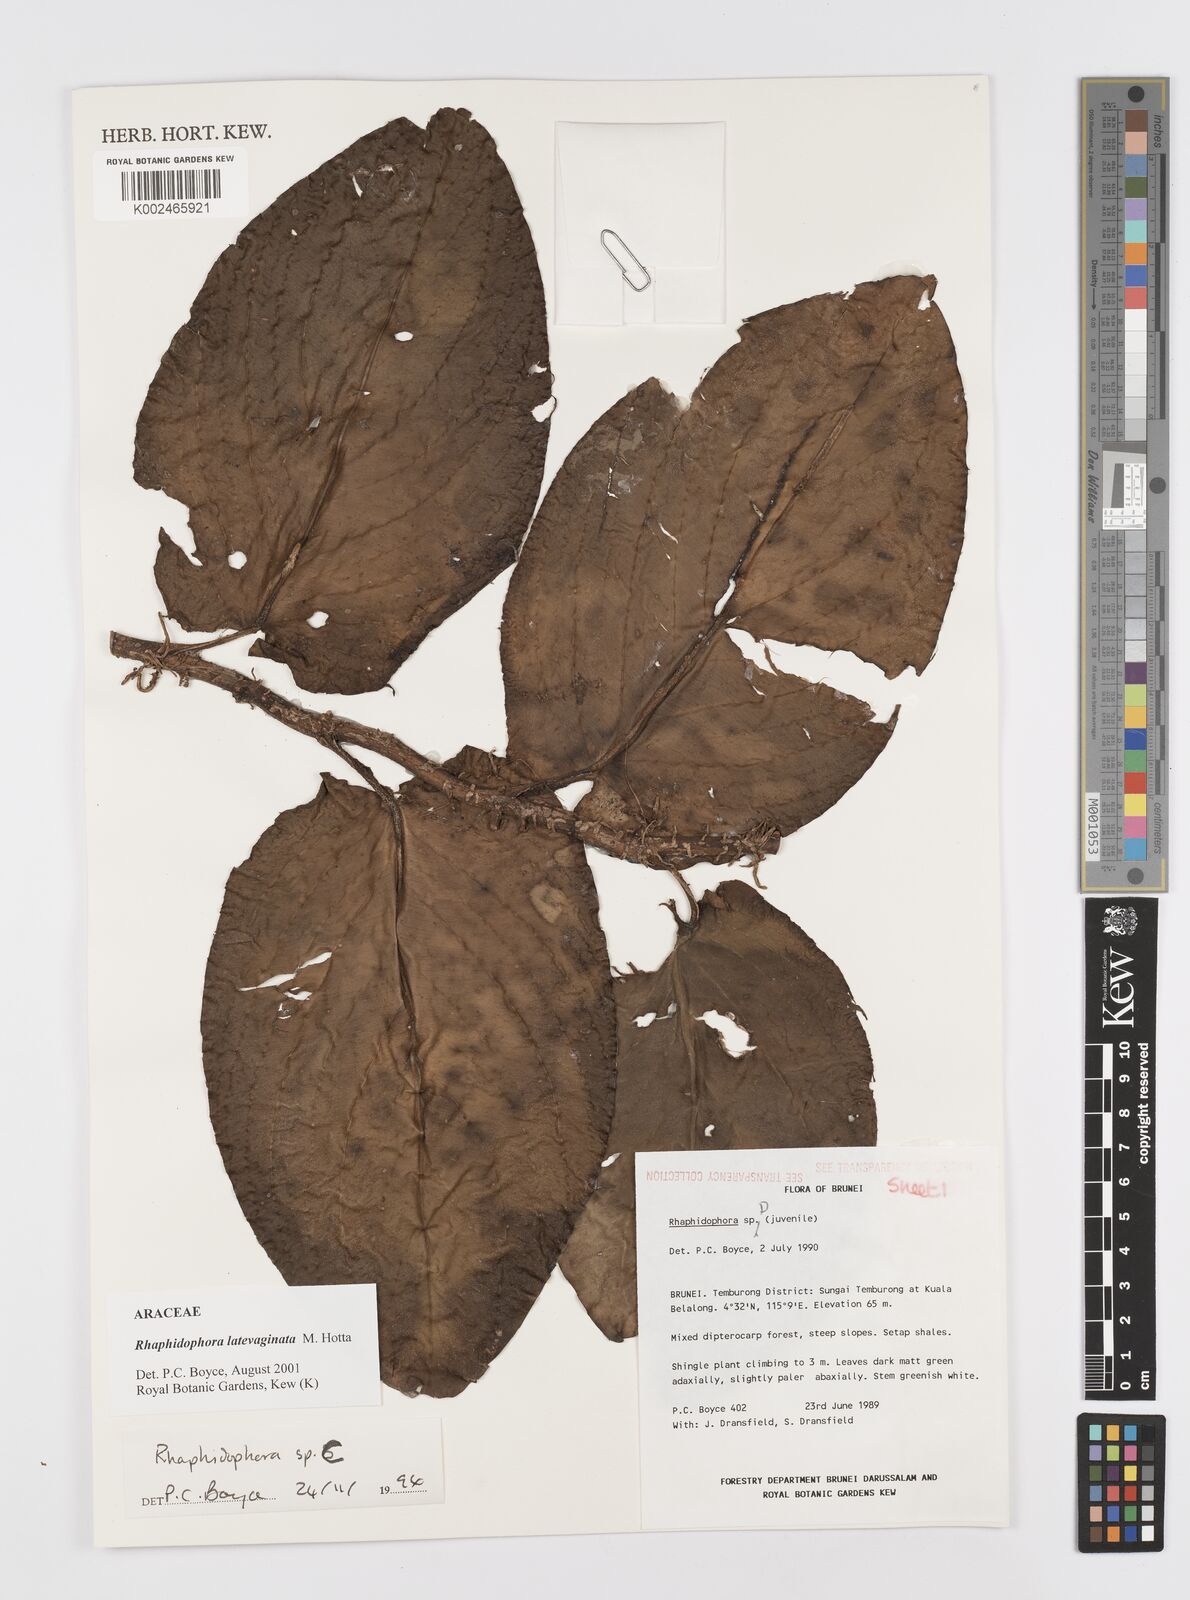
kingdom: Plantae
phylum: Tracheophyta
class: Liliopsida
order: Alismatales
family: Araceae
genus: Rhaphidophora
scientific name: Rhaphidophora latevaginata
